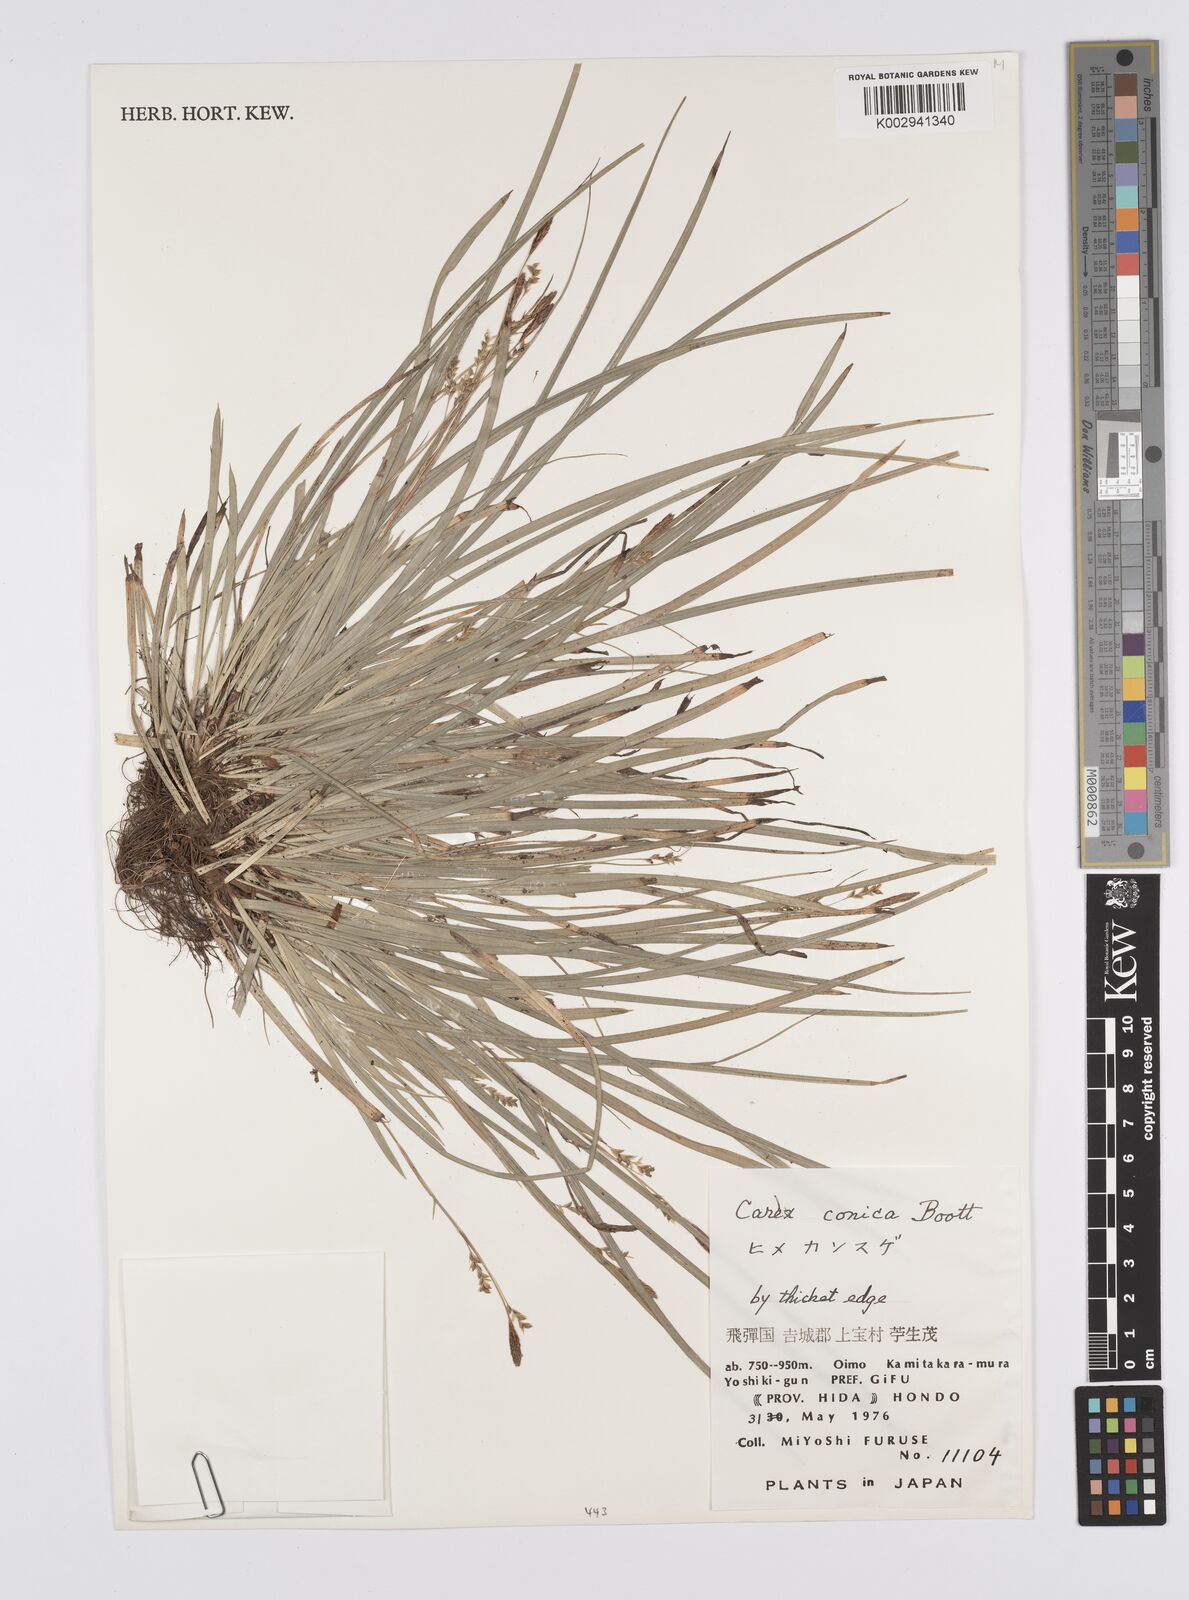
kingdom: Plantae
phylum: Tracheophyta
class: Liliopsida
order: Poales
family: Cyperaceae
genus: Carex
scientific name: Carex conica
